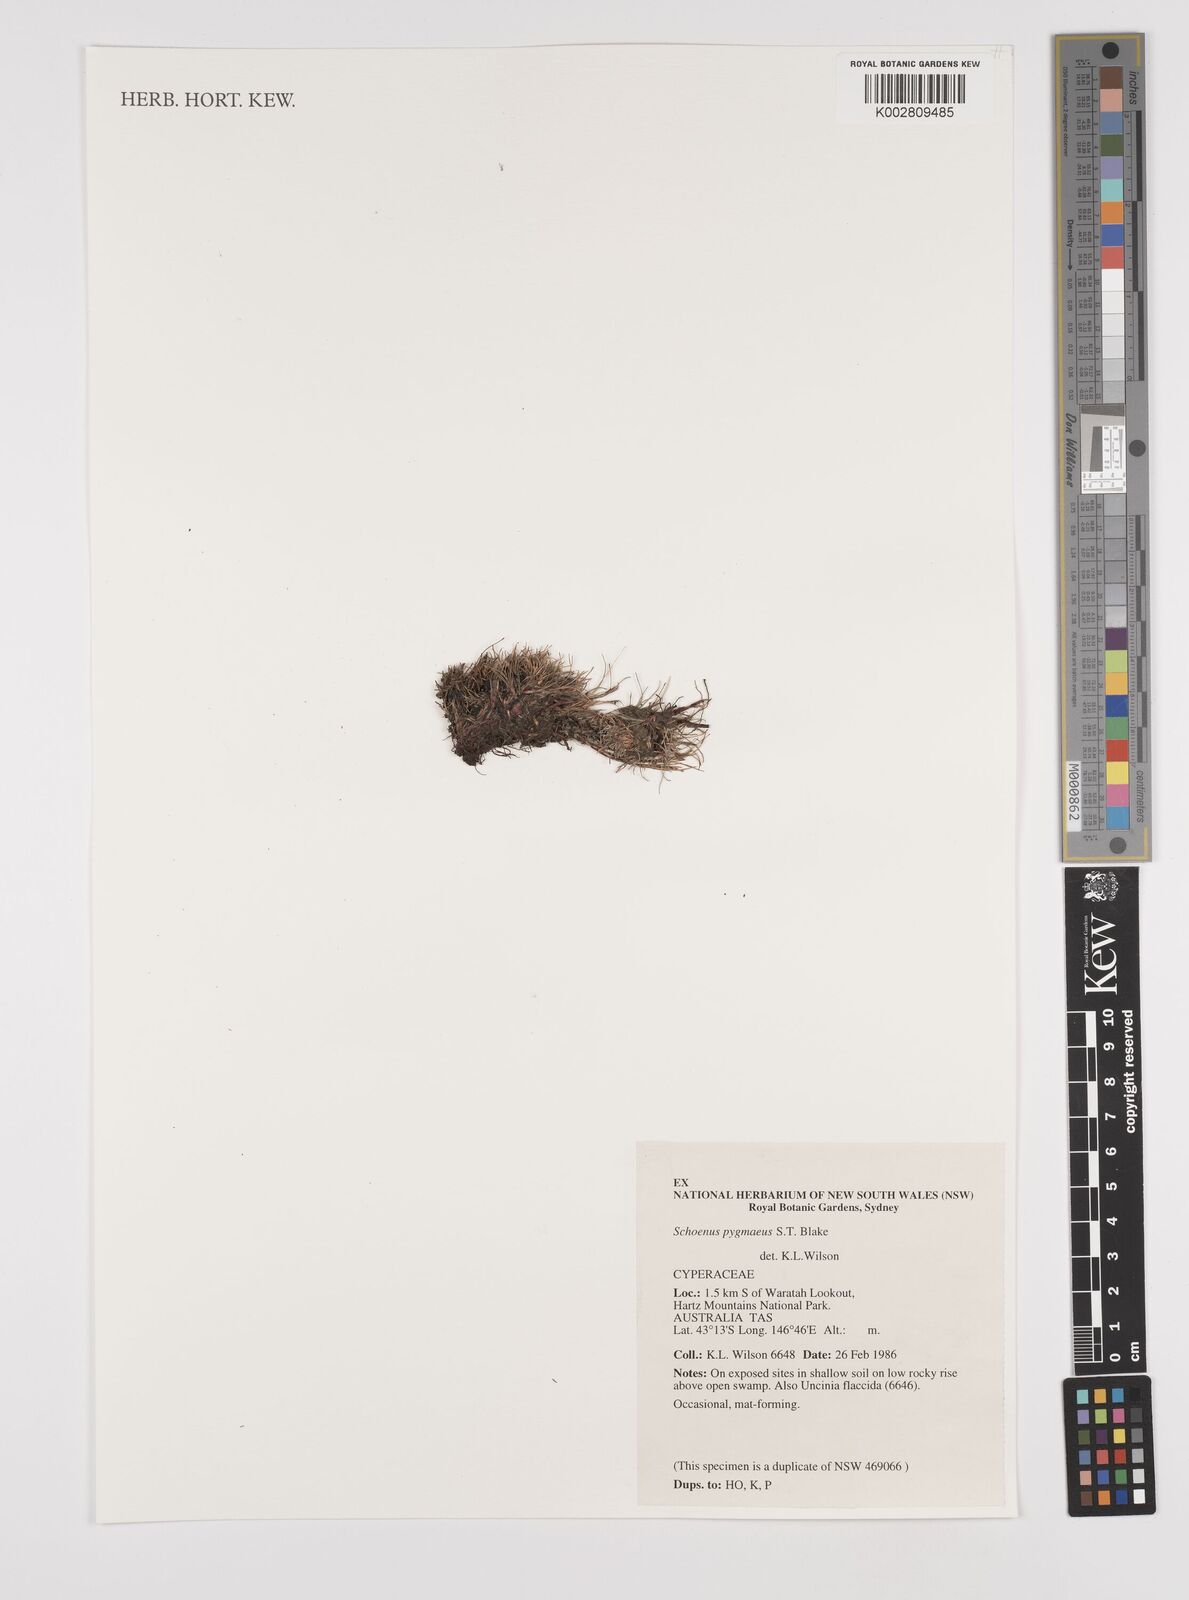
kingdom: Plantae
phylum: Tracheophyta
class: Liliopsida
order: Poales
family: Cyperaceae
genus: Schoenus
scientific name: Schoenus pygmaeus
